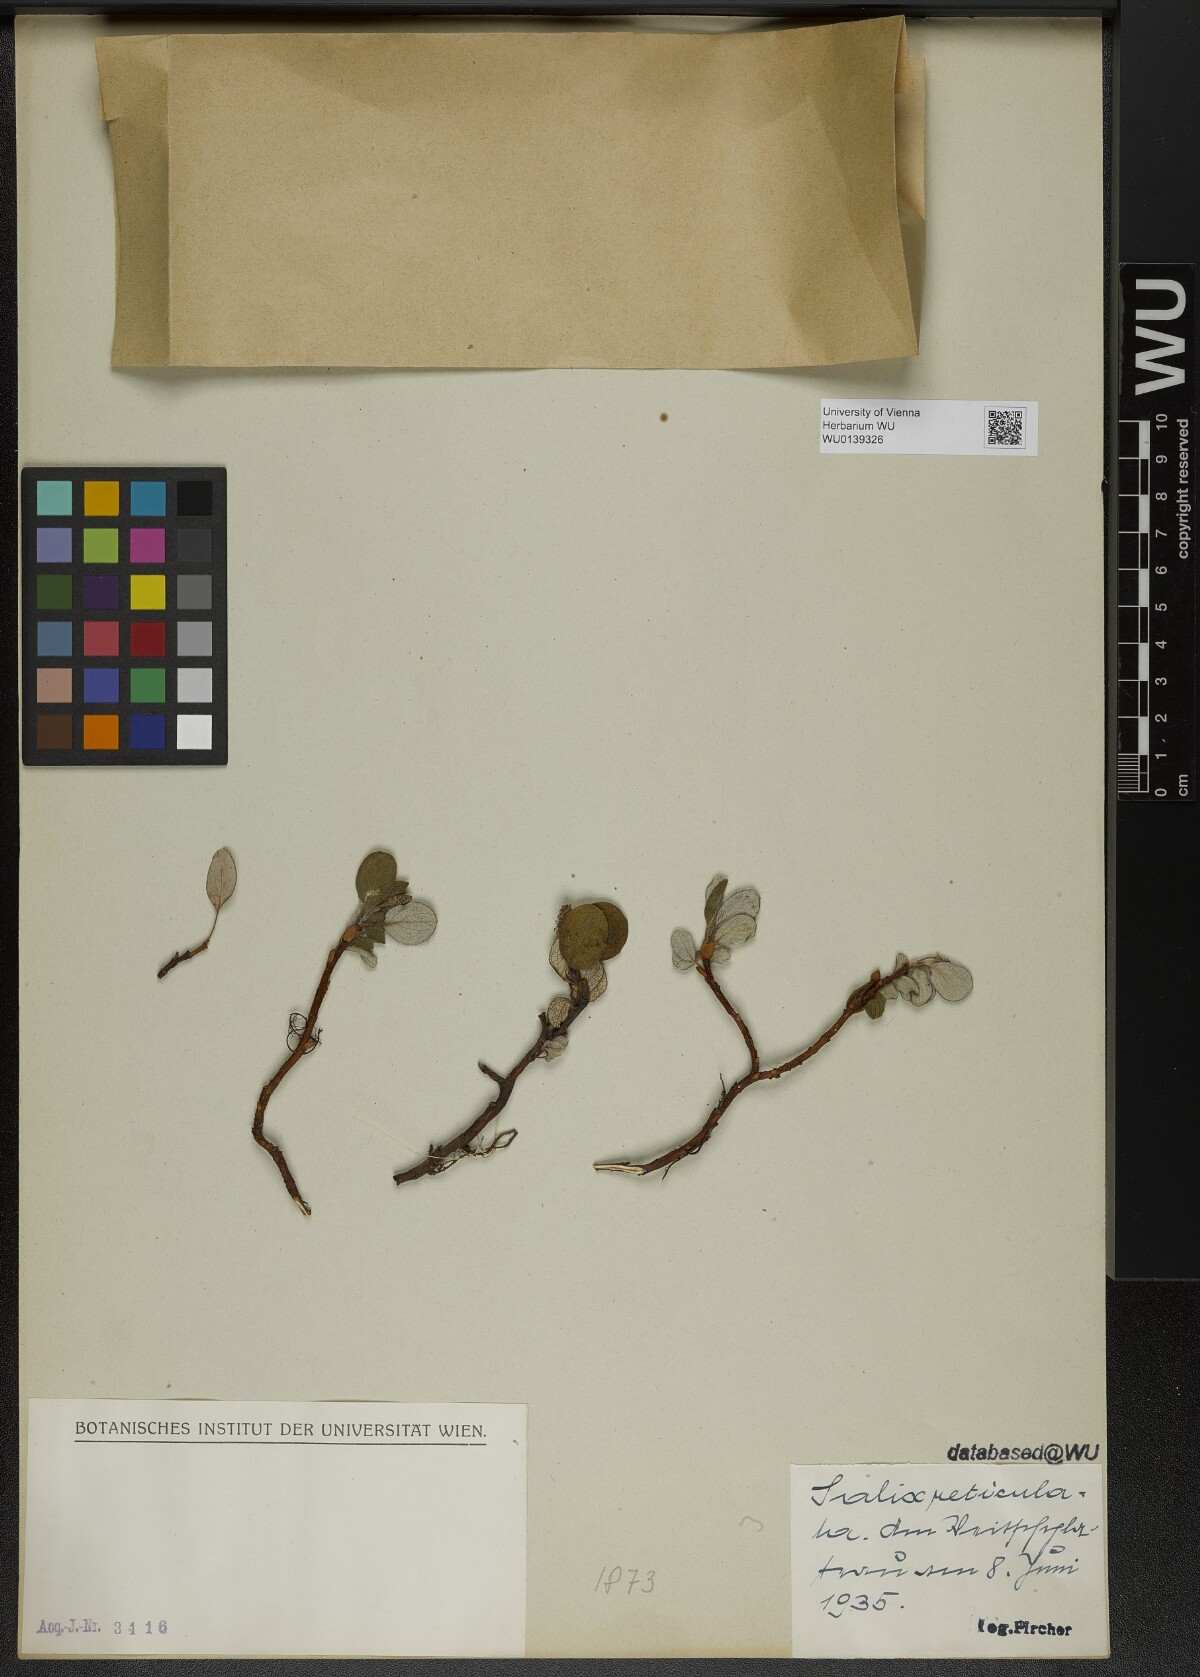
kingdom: Plantae
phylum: Tracheophyta
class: Magnoliopsida
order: Malpighiales
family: Salicaceae
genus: Salix
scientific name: Salix reticulata
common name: Net-leaved willow
